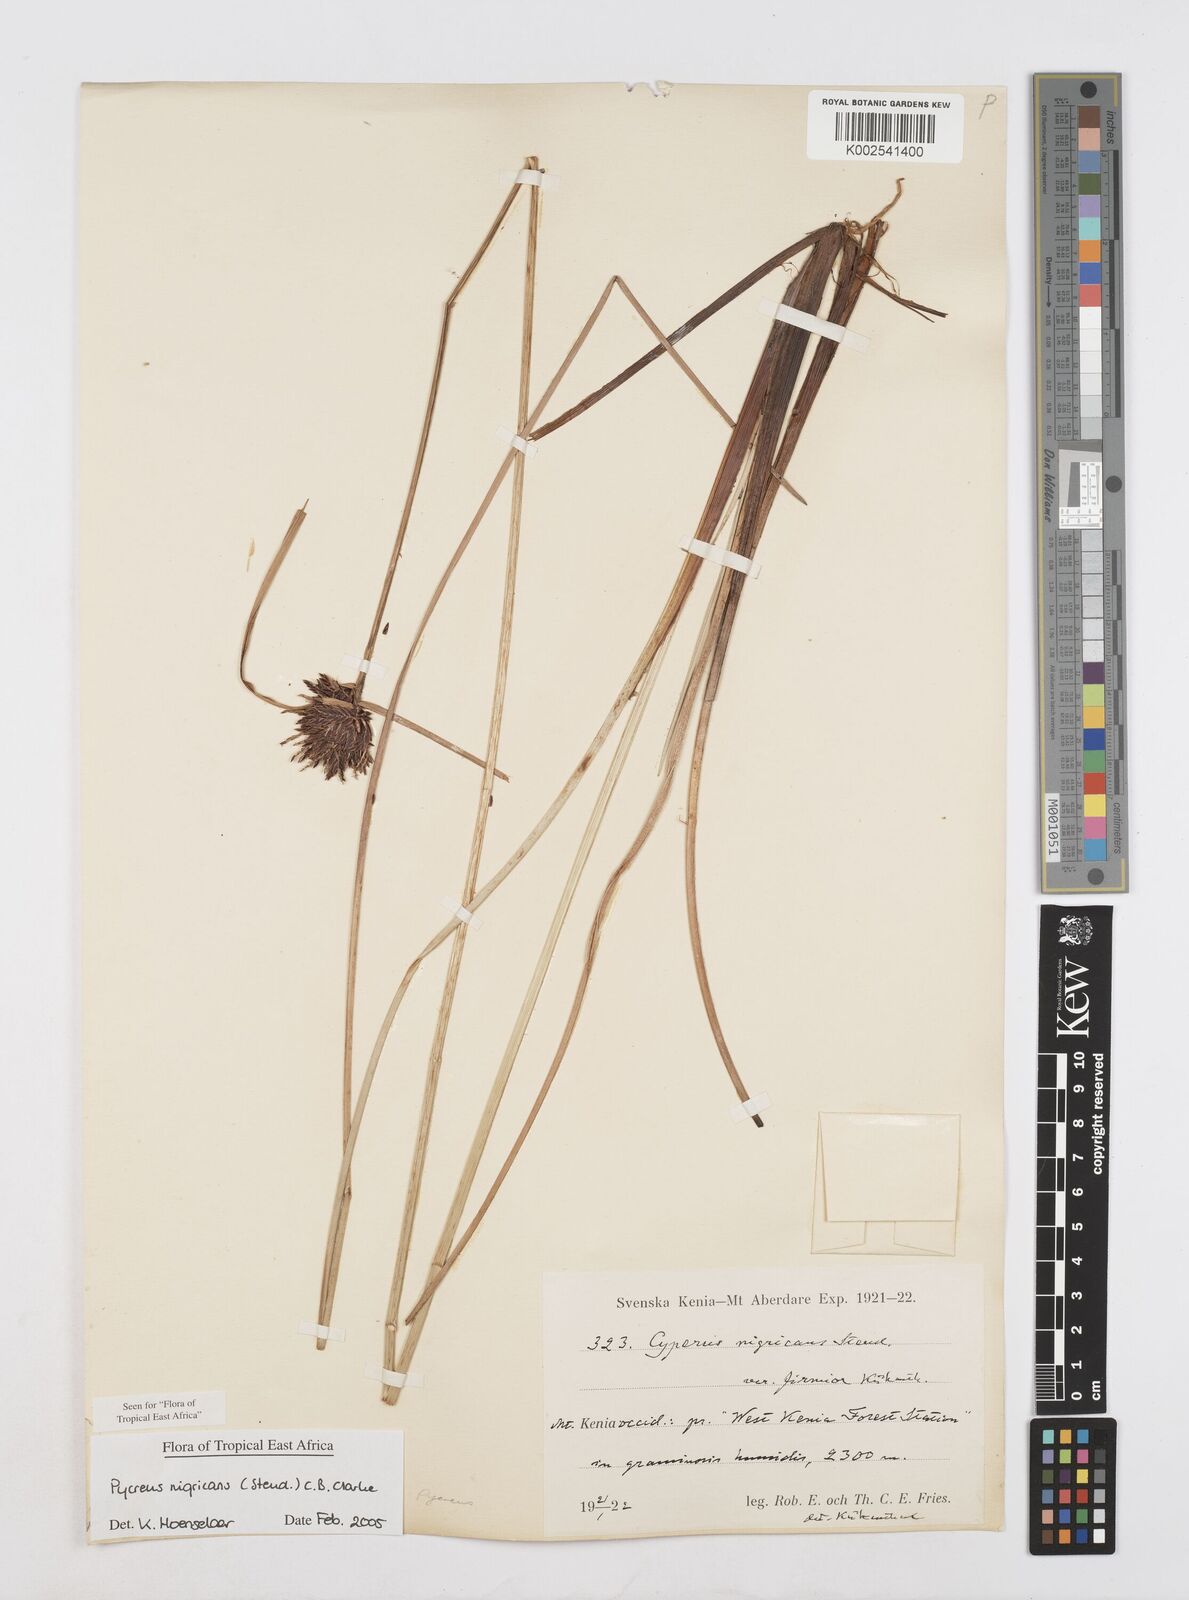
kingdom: Plantae
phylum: Tracheophyta
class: Liliopsida
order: Poales
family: Cyperaceae
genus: Cyperus
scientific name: Cyperus nigricans
